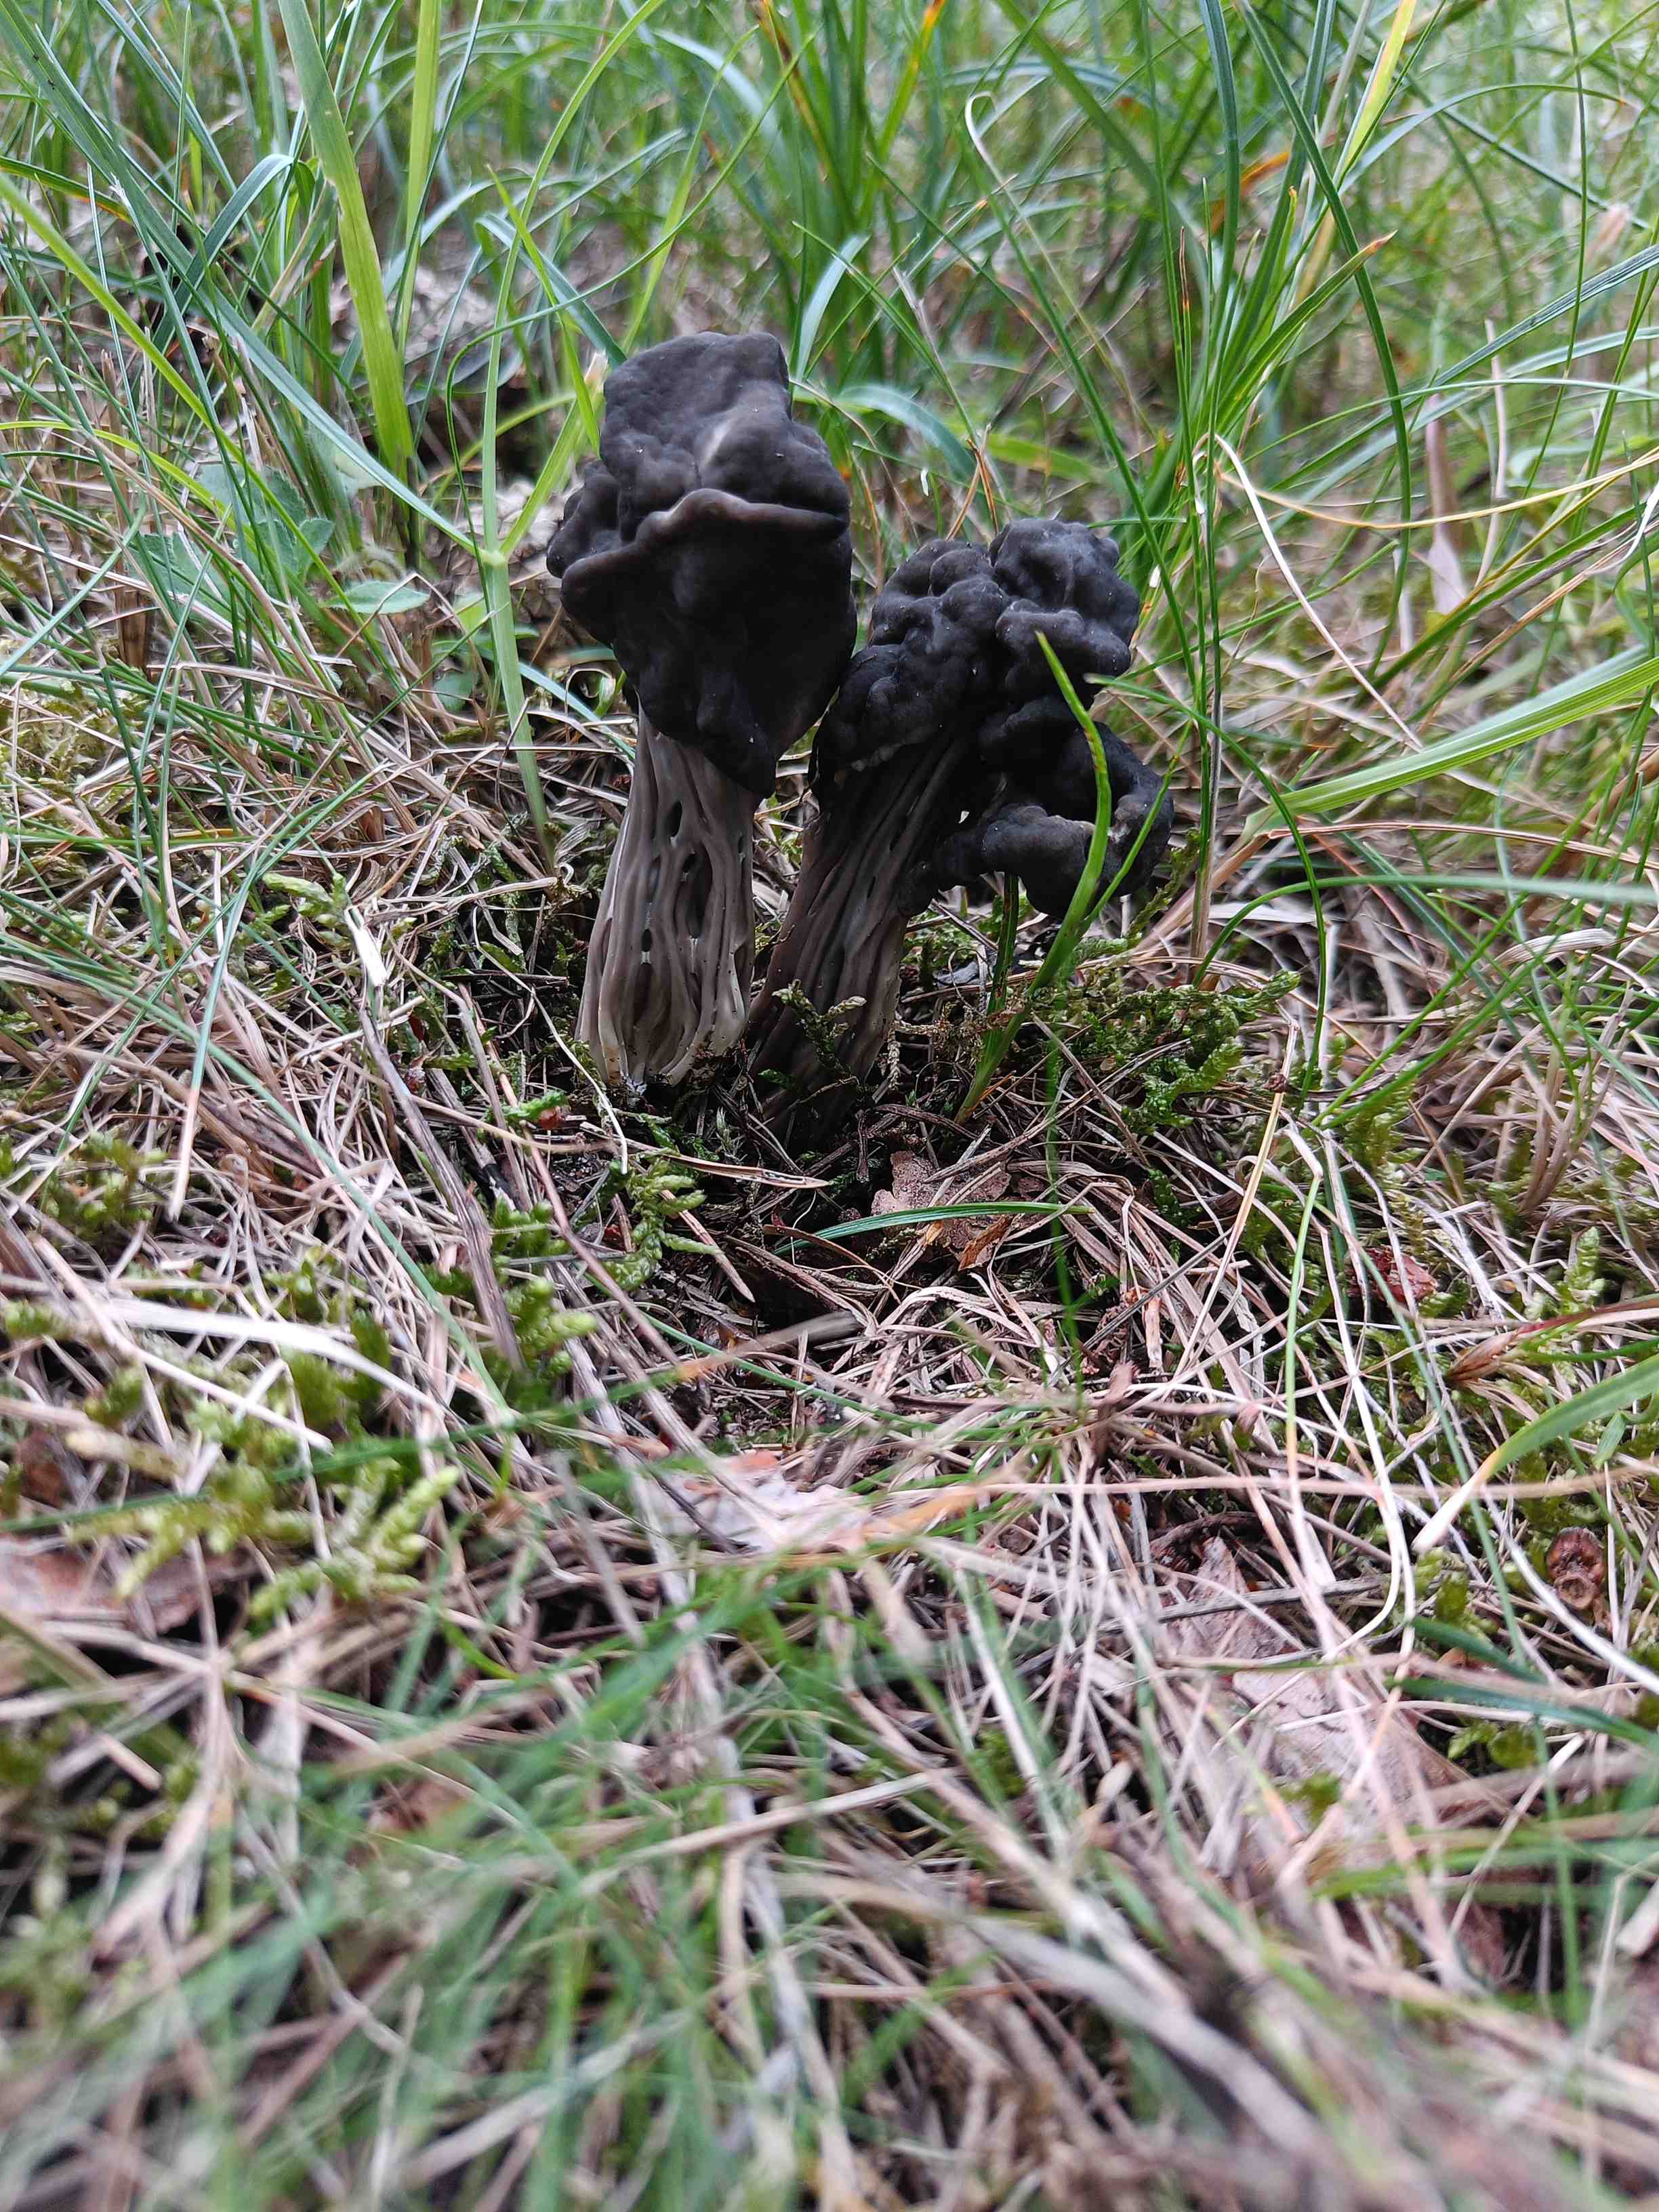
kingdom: Fungi
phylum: Ascomycota
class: Pezizomycetes
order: Pezizales
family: Helvellaceae
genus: Helvella
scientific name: Helvella lacunosa
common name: grubet foldhat
